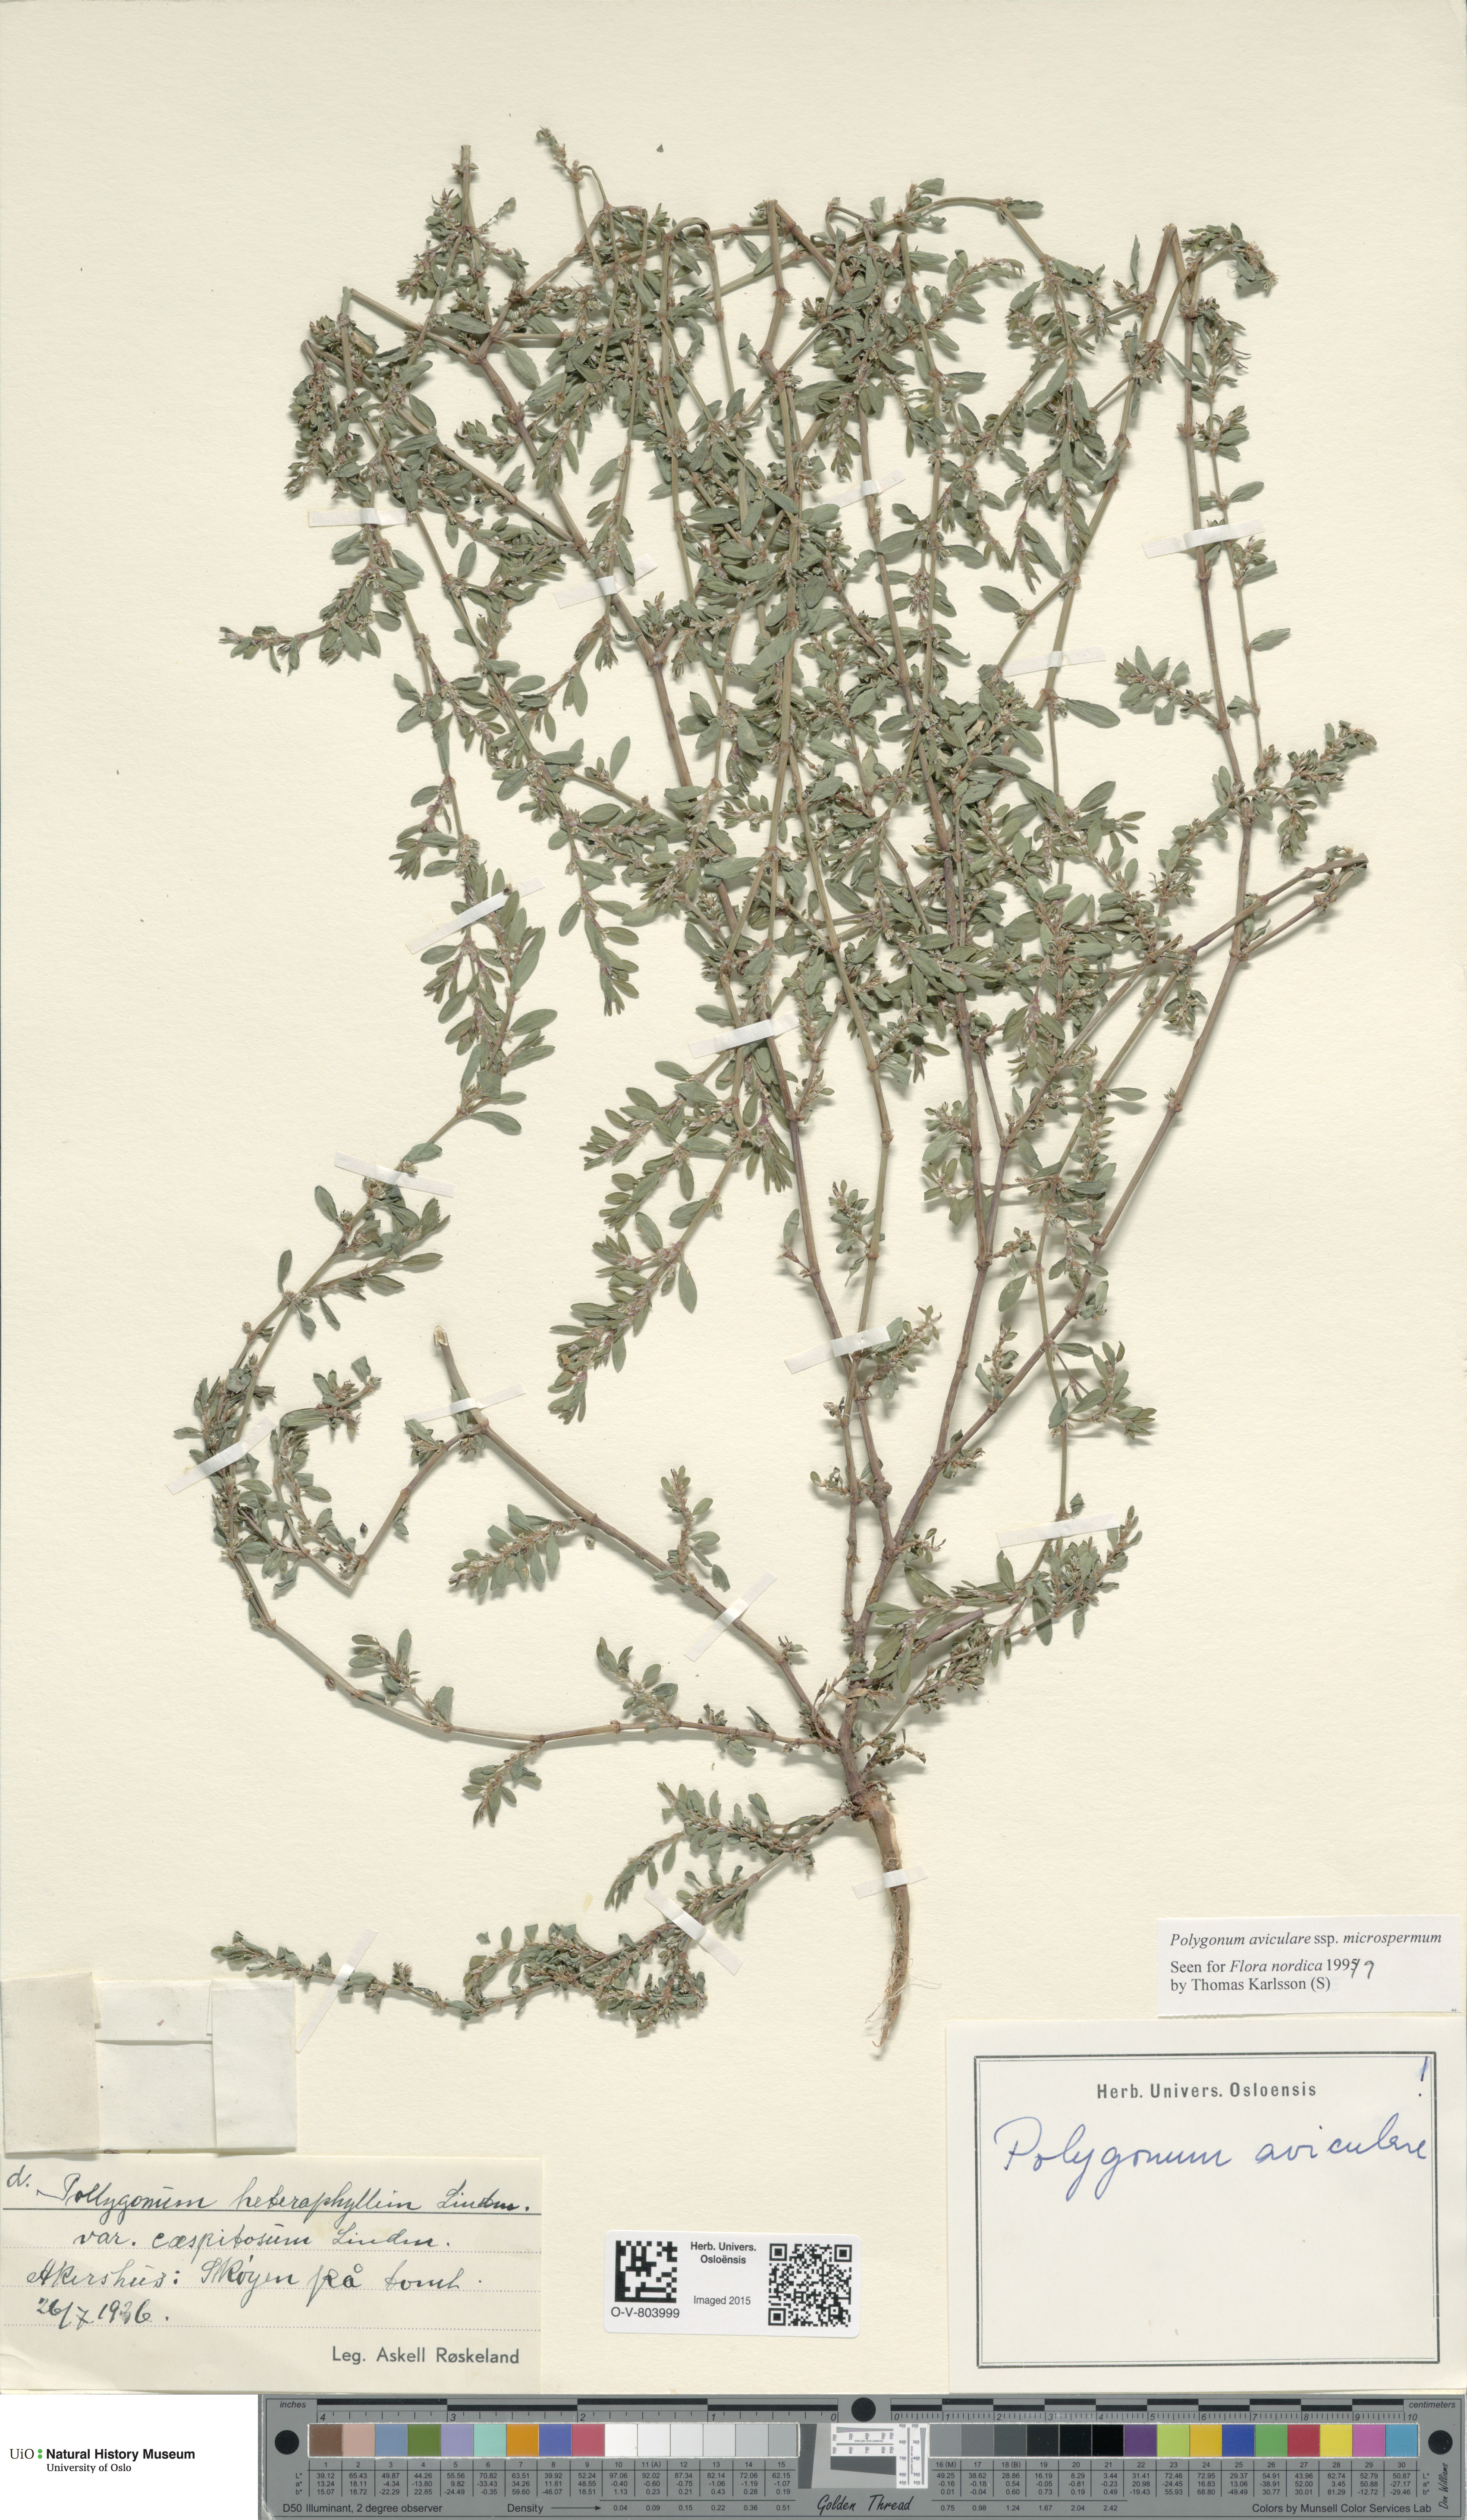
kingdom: Plantae
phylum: Tracheophyta
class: Magnoliopsida
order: Caryophyllales
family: Polygonaceae
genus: Polygonum
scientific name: Polygonum arenastrum
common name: Equal-leaved knotgrass
